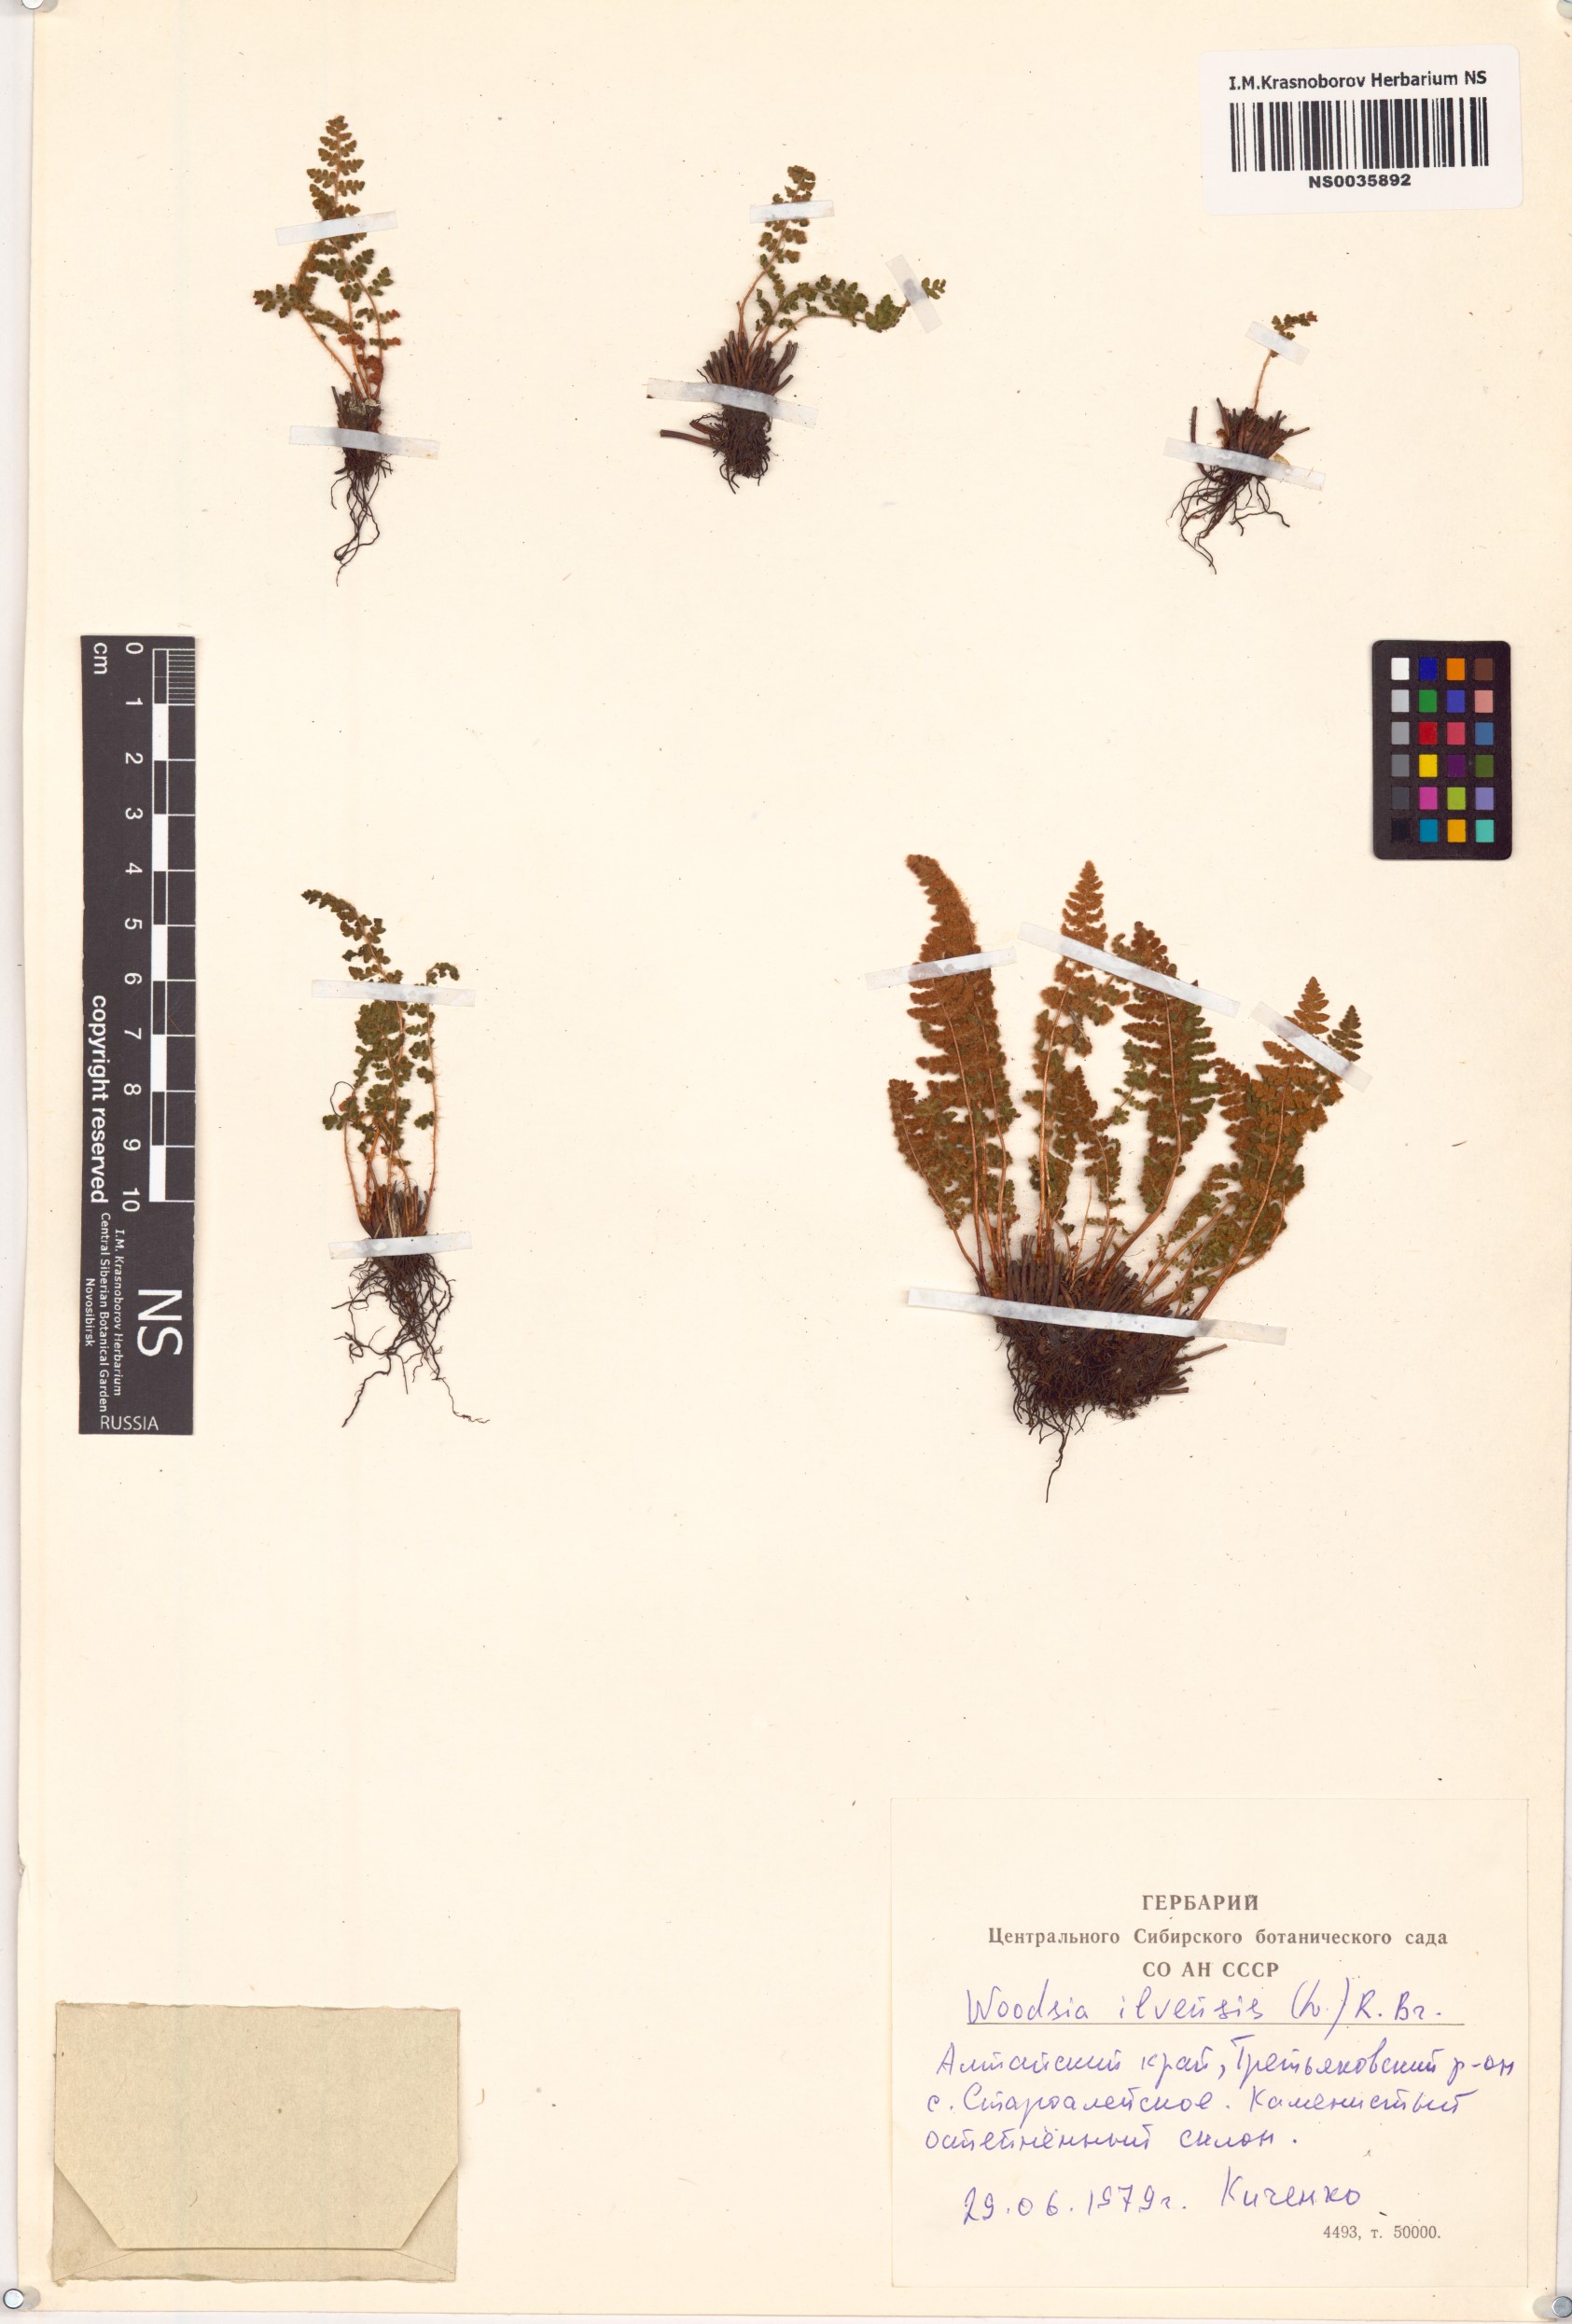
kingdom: Plantae
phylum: Tracheophyta
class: Polypodiopsida
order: Polypodiales
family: Woodsiaceae
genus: Woodsia
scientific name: Woodsia ilvensis
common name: Fragrant woodsia
